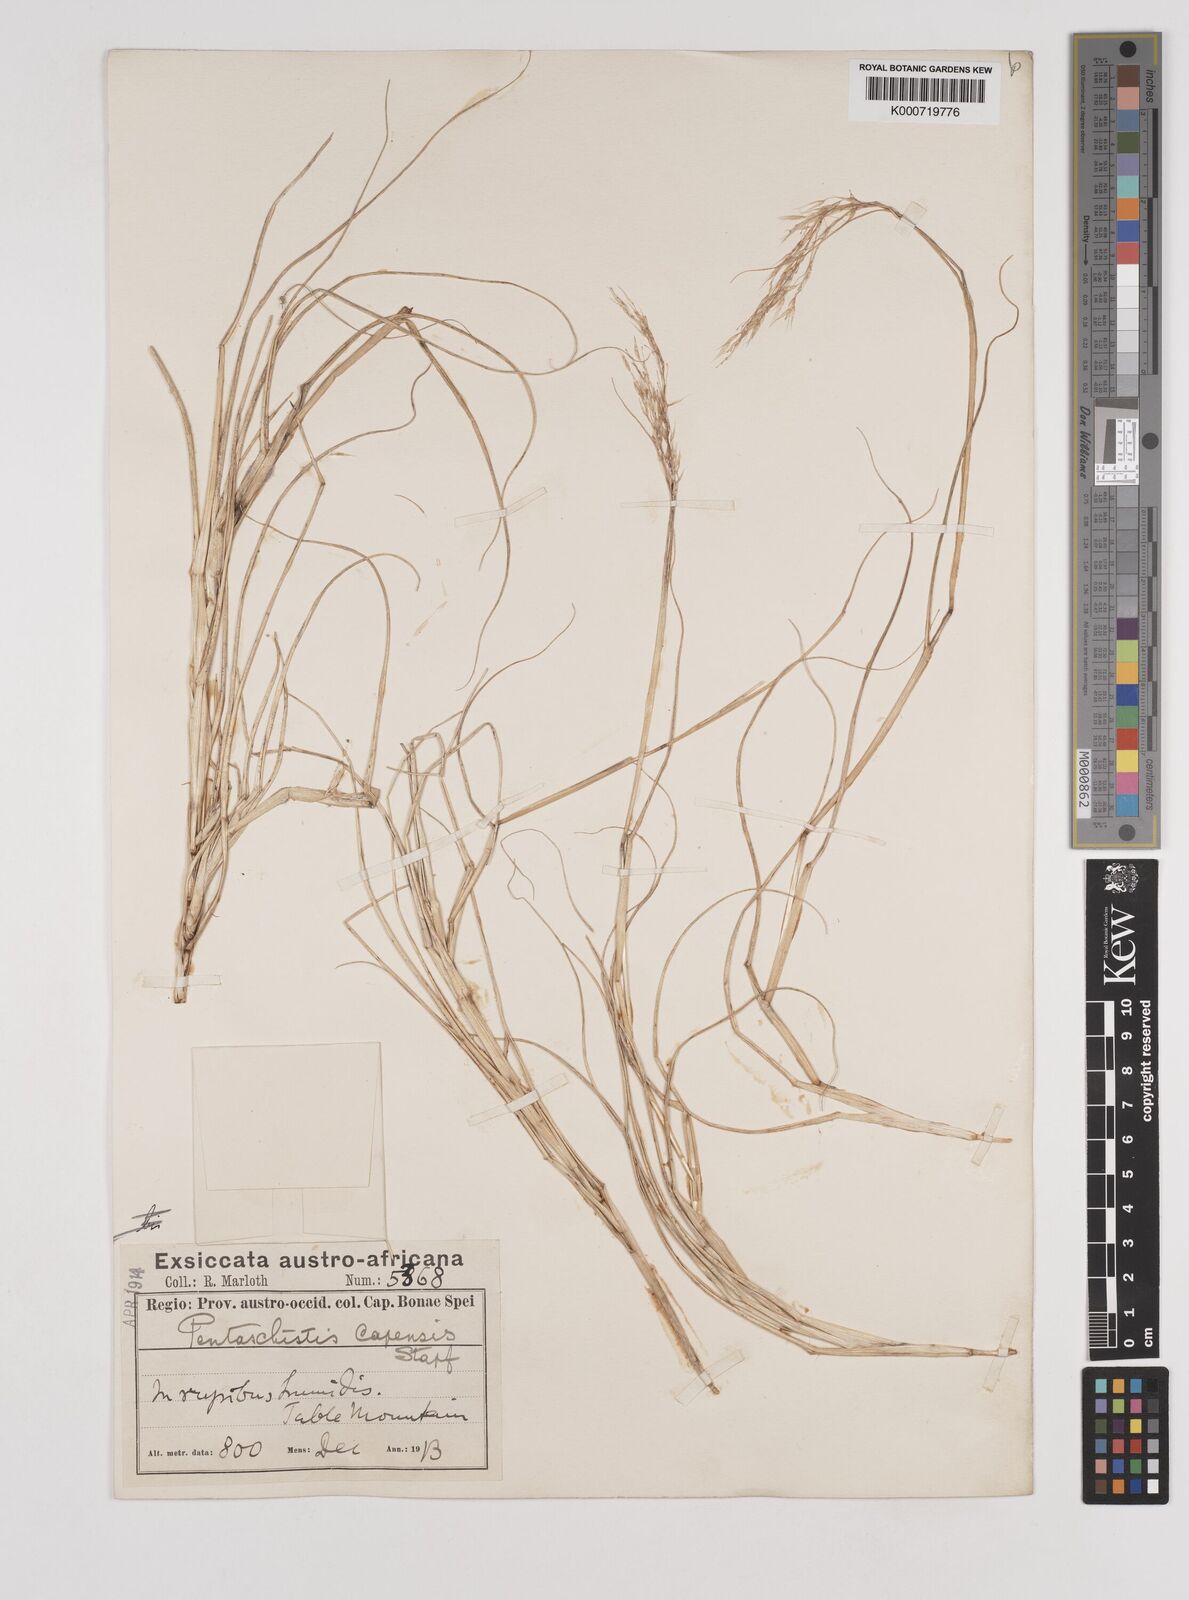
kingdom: Plantae
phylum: Tracheophyta
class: Liliopsida
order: Poales
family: Poaceae
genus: Pentameris
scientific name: Pentameris capensis
